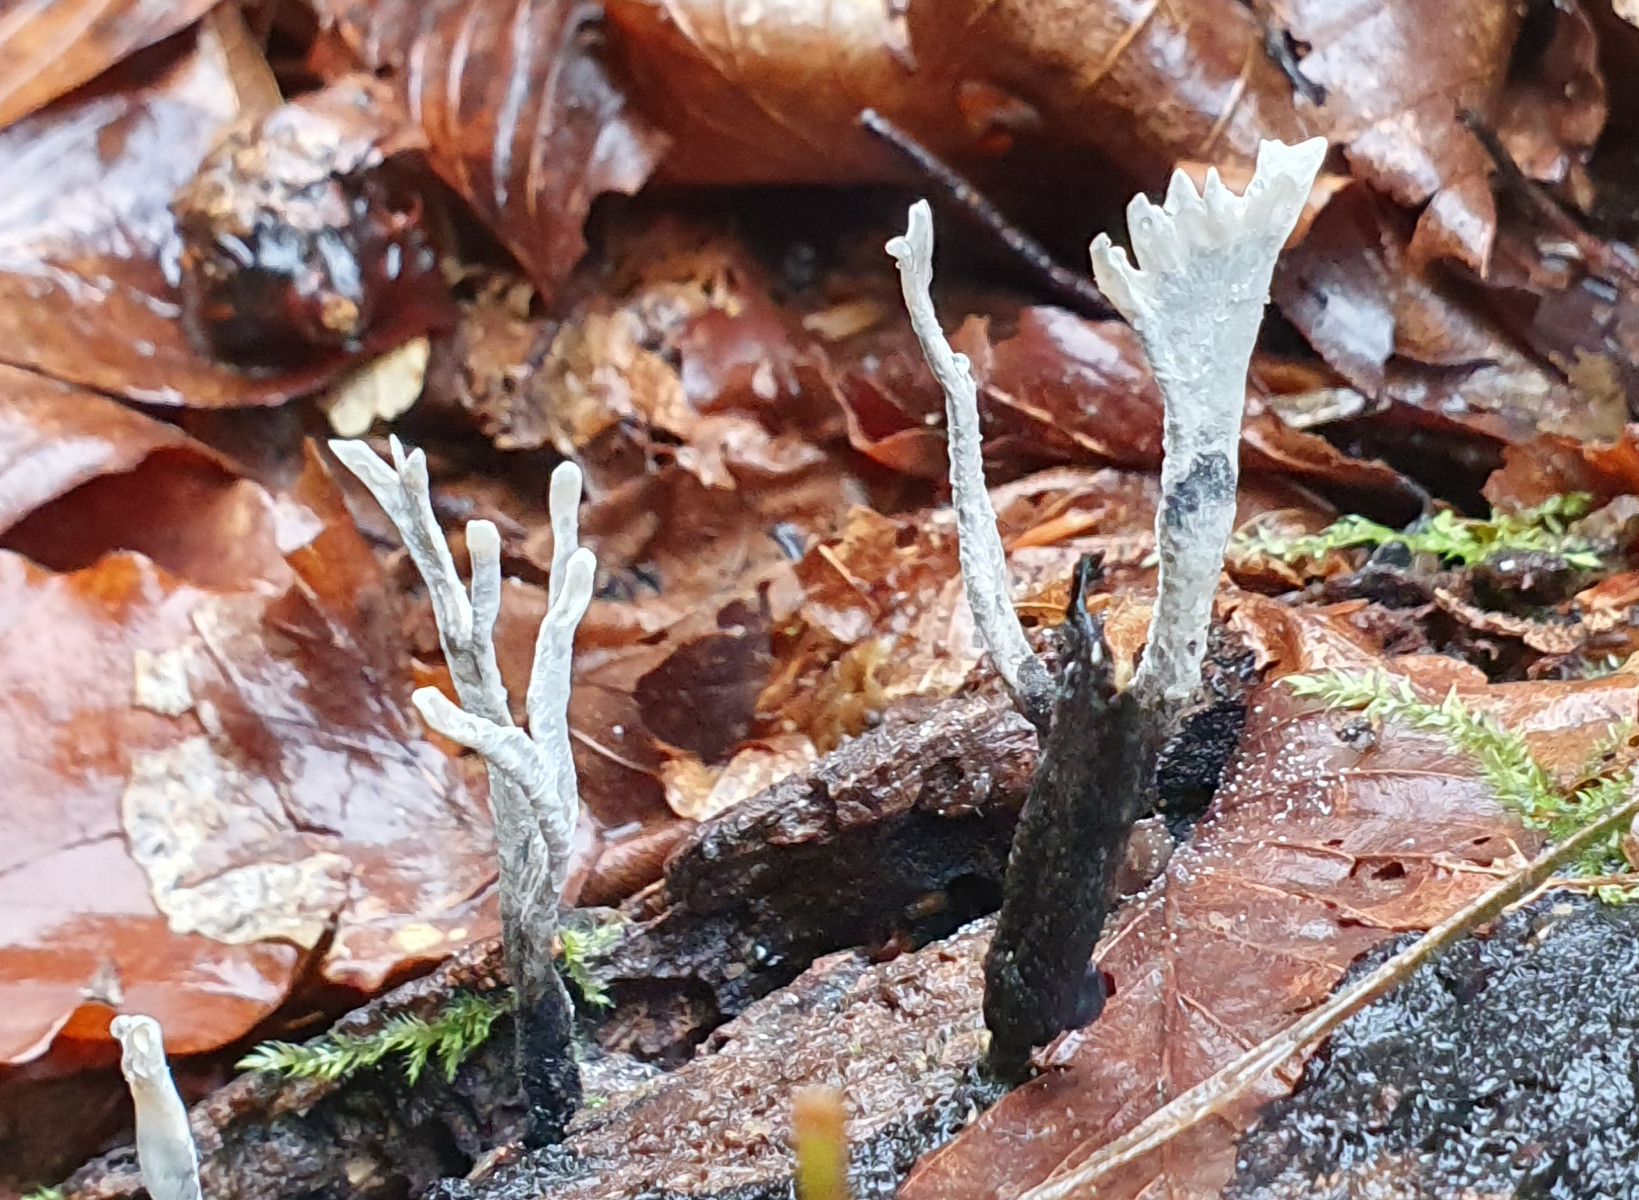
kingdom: Fungi
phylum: Ascomycota
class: Sordariomycetes
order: Xylariales
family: Xylariaceae
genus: Xylaria
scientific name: Xylaria hypoxylon
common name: grenet stødsvamp
